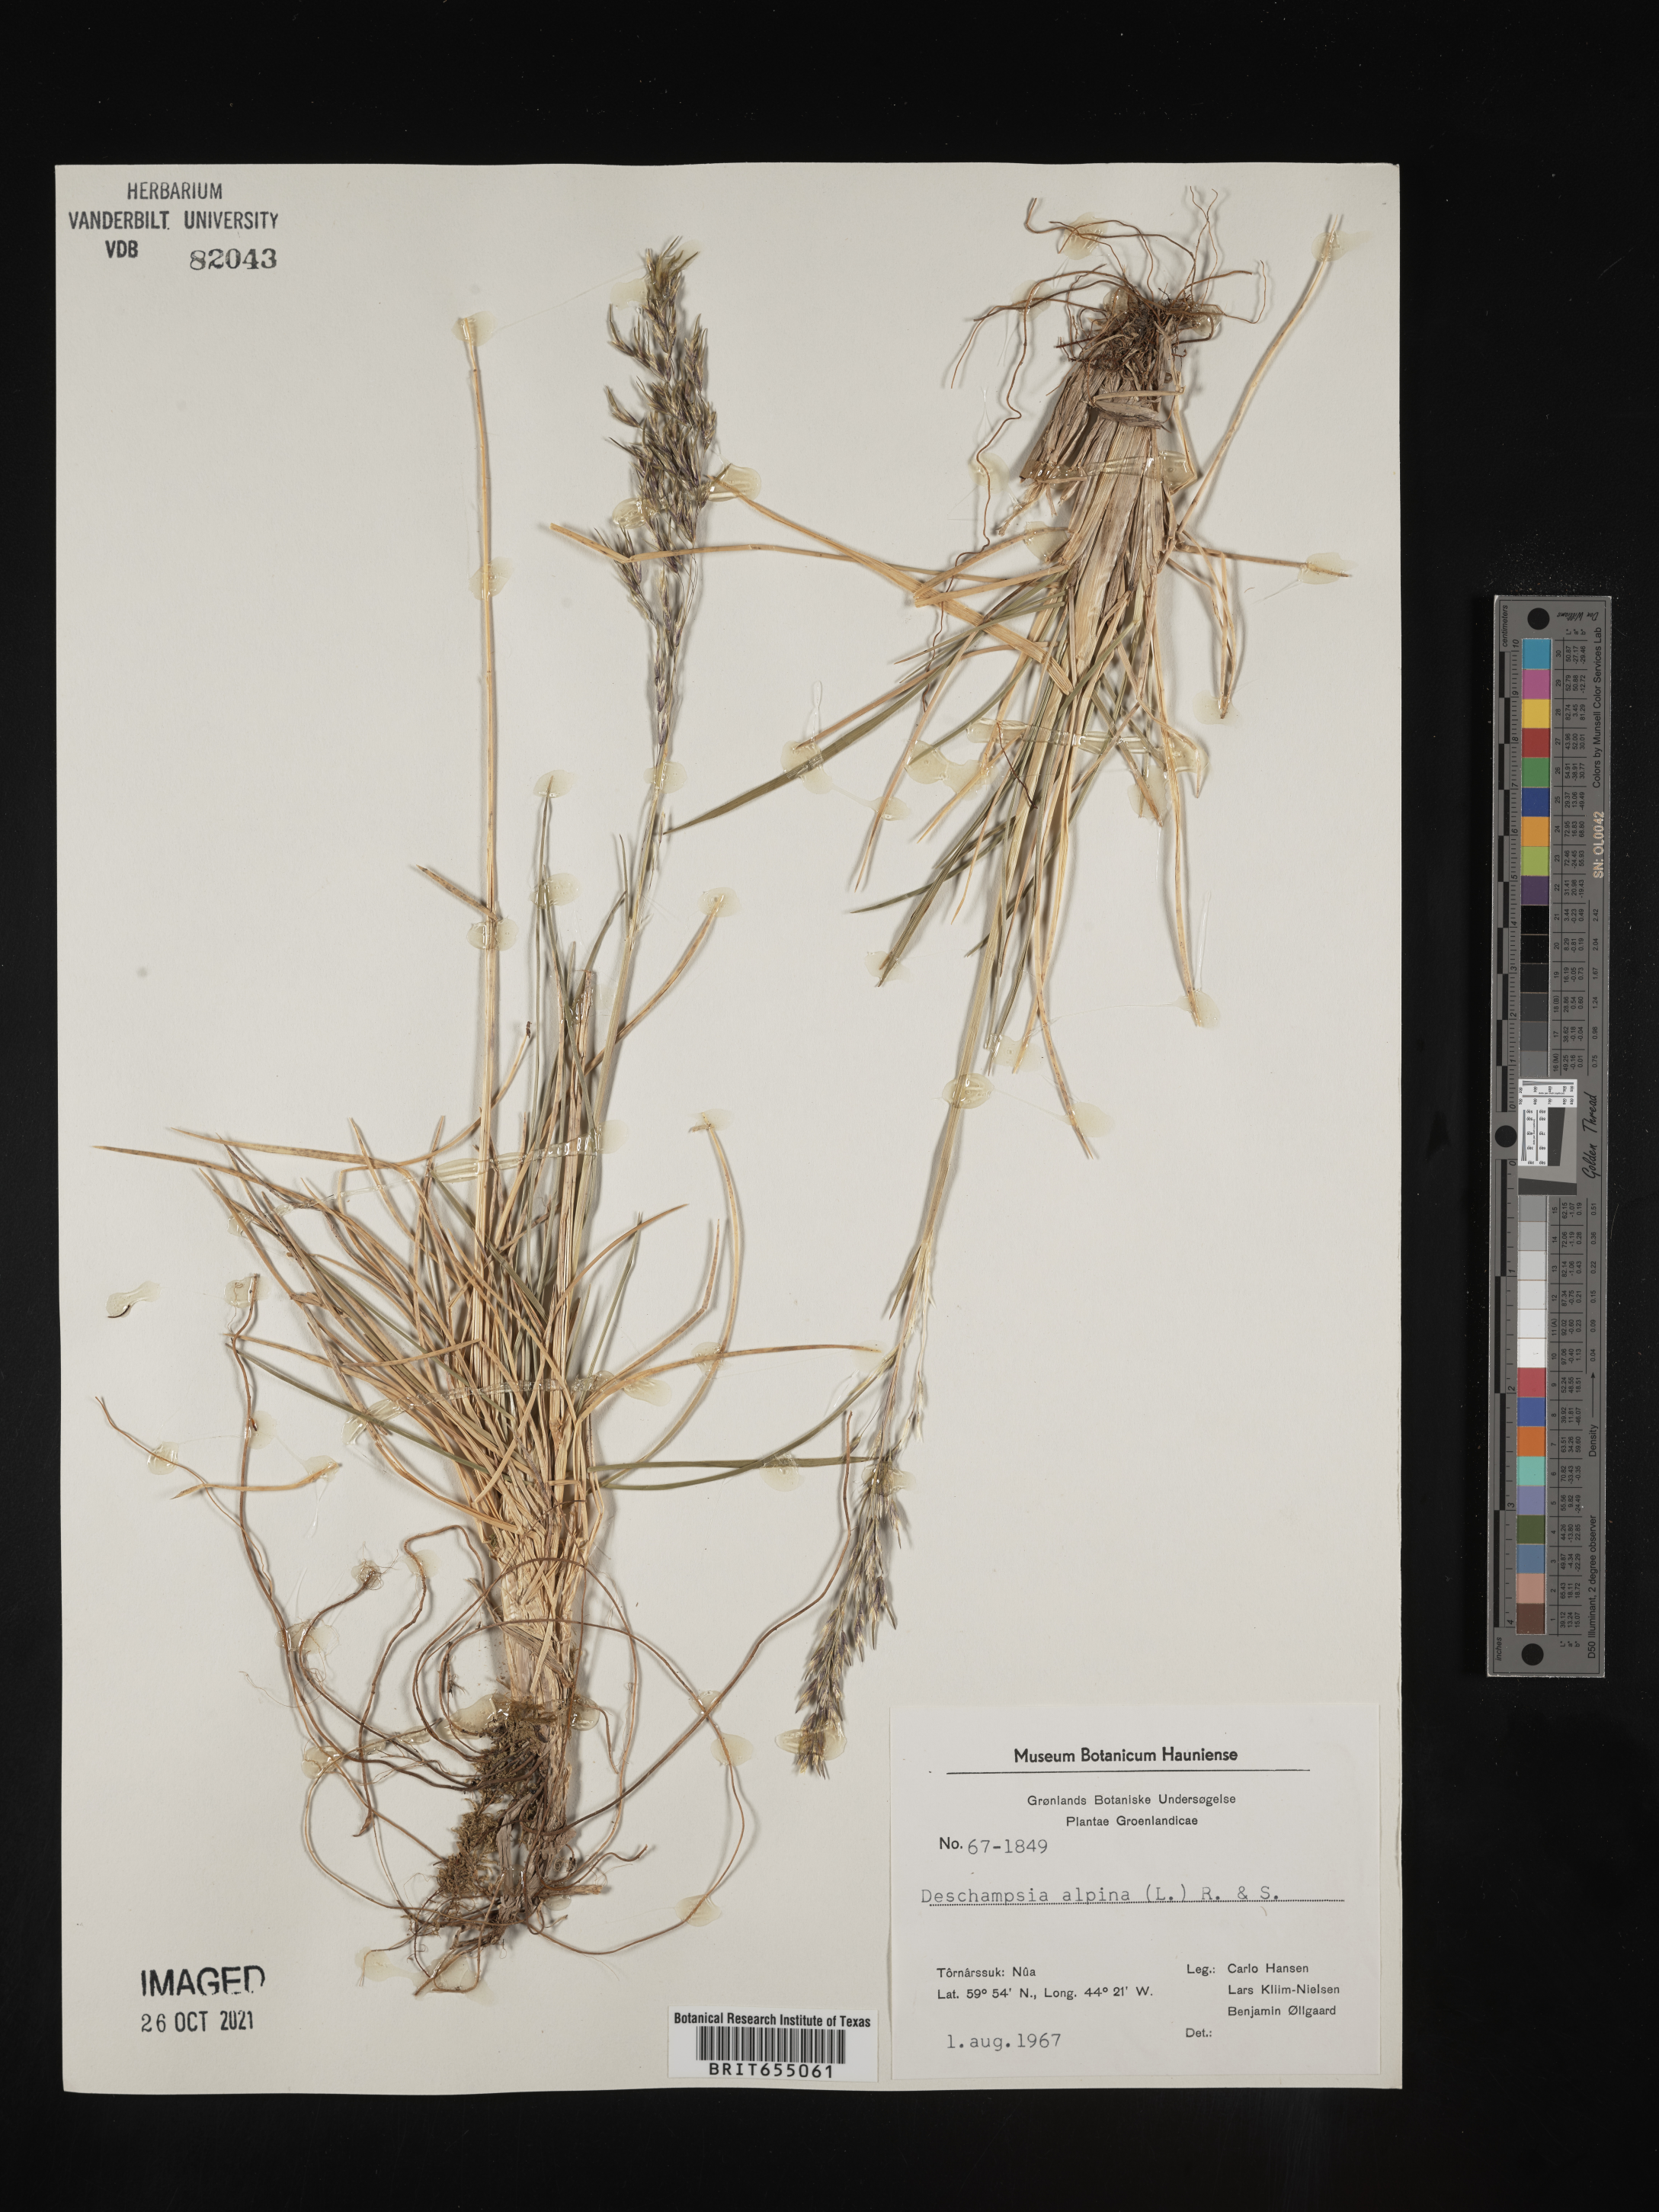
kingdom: Plantae
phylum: Tracheophyta
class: Liliopsida
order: Poales
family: Poaceae
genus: Deschampsia
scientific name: Deschampsia
